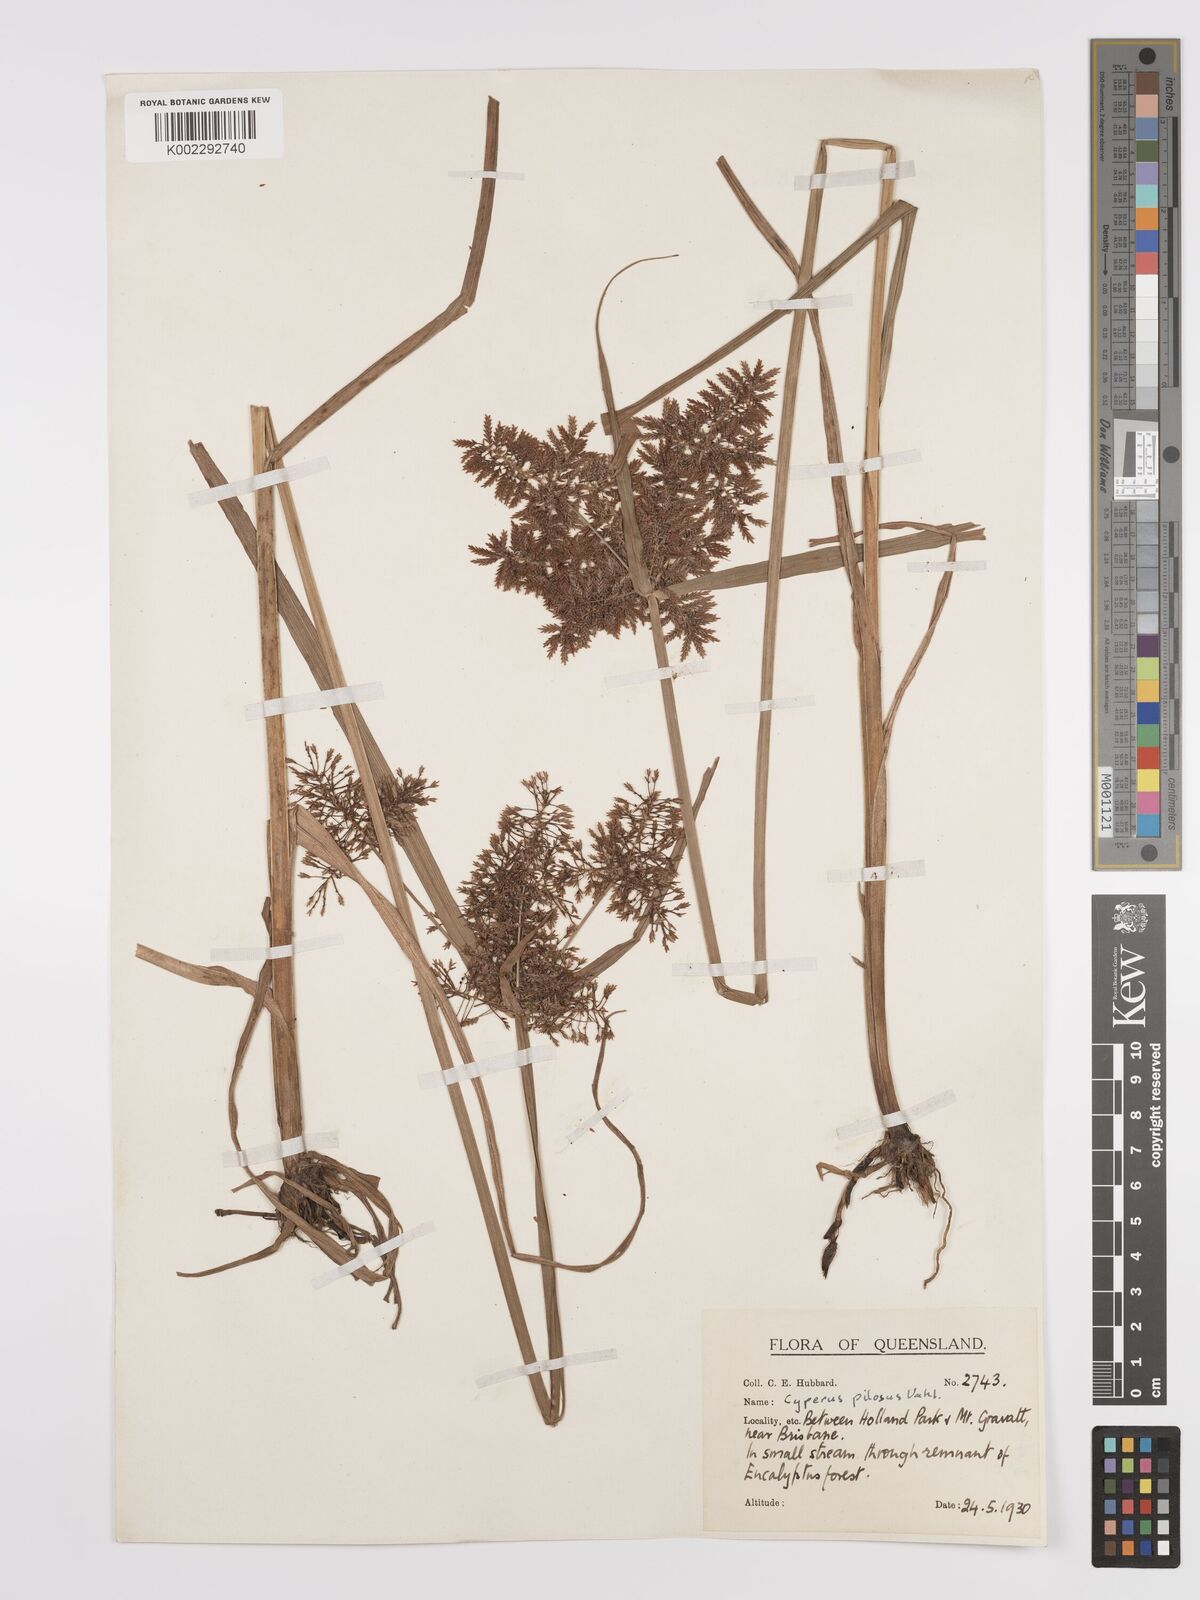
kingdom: Plantae
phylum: Tracheophyta
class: Liliopsida
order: Poales
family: Cyperaceae
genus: Cyperus
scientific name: Cyperus pilosus
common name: Fuzzy flatsedge
